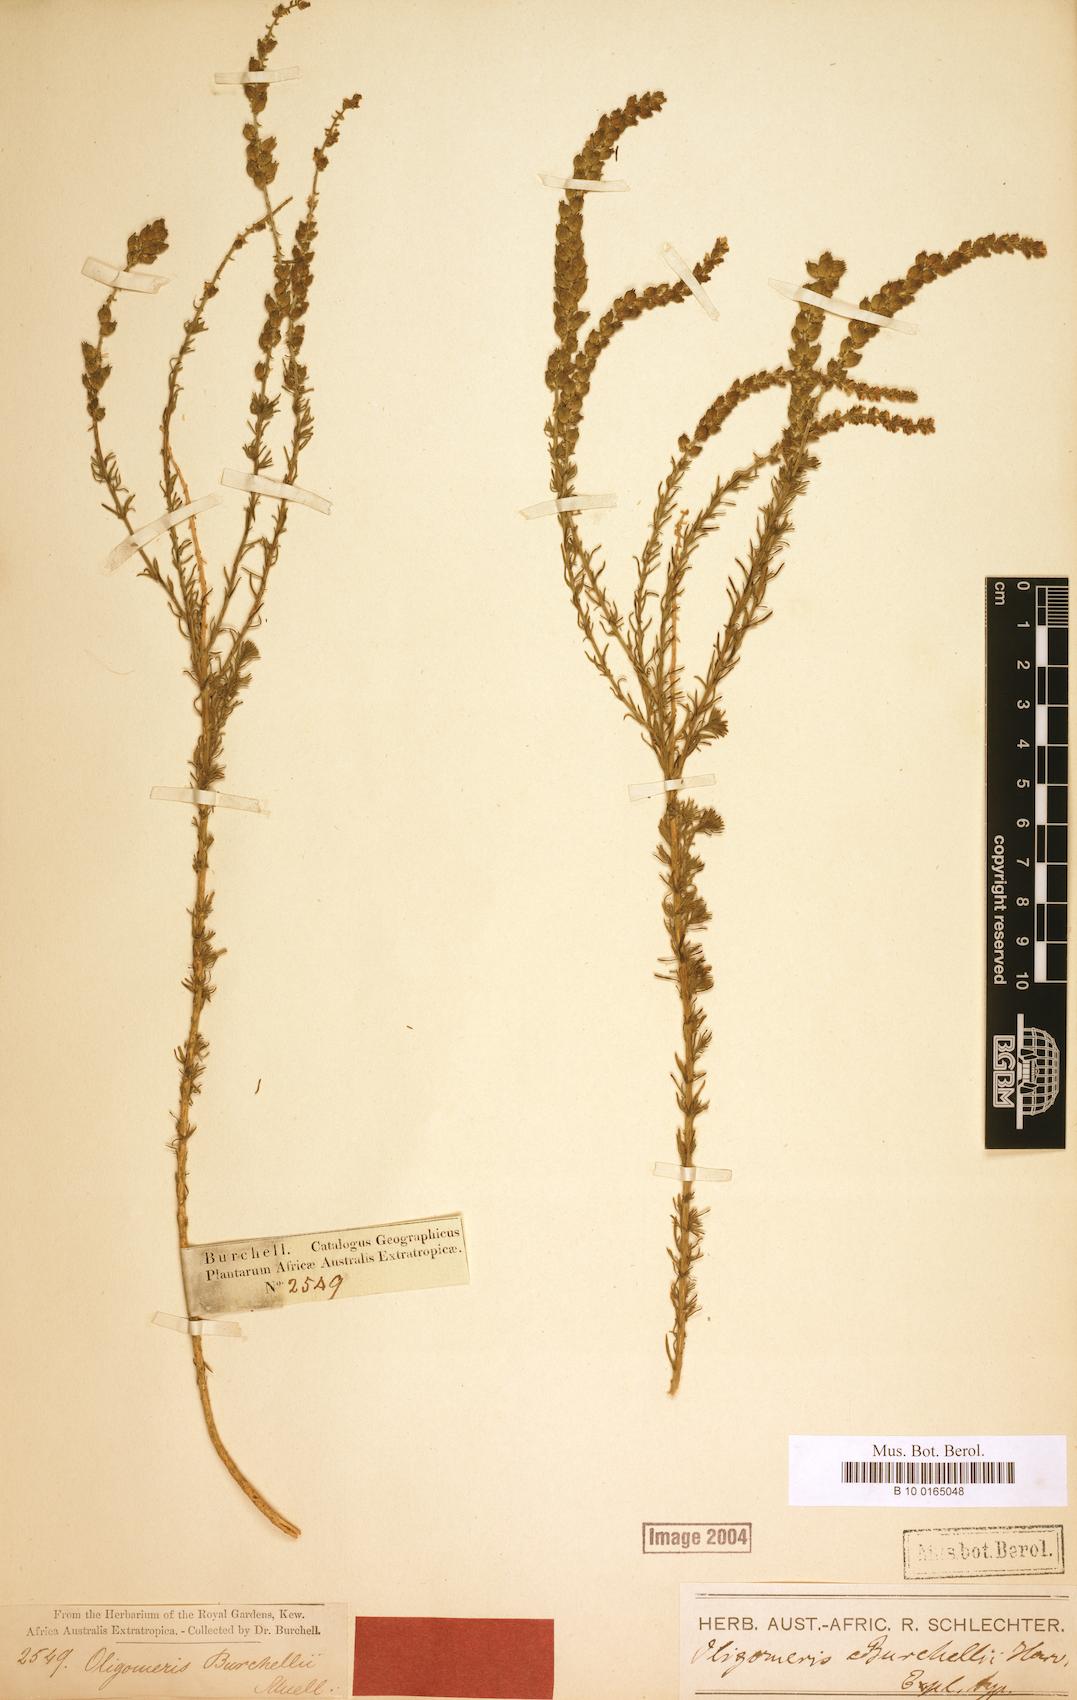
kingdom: Plantae
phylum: Tracheophyta
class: Magnoliopsida
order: Brassicales
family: Resedaceae
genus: Oligomeris
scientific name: Oligomeris dipetala
